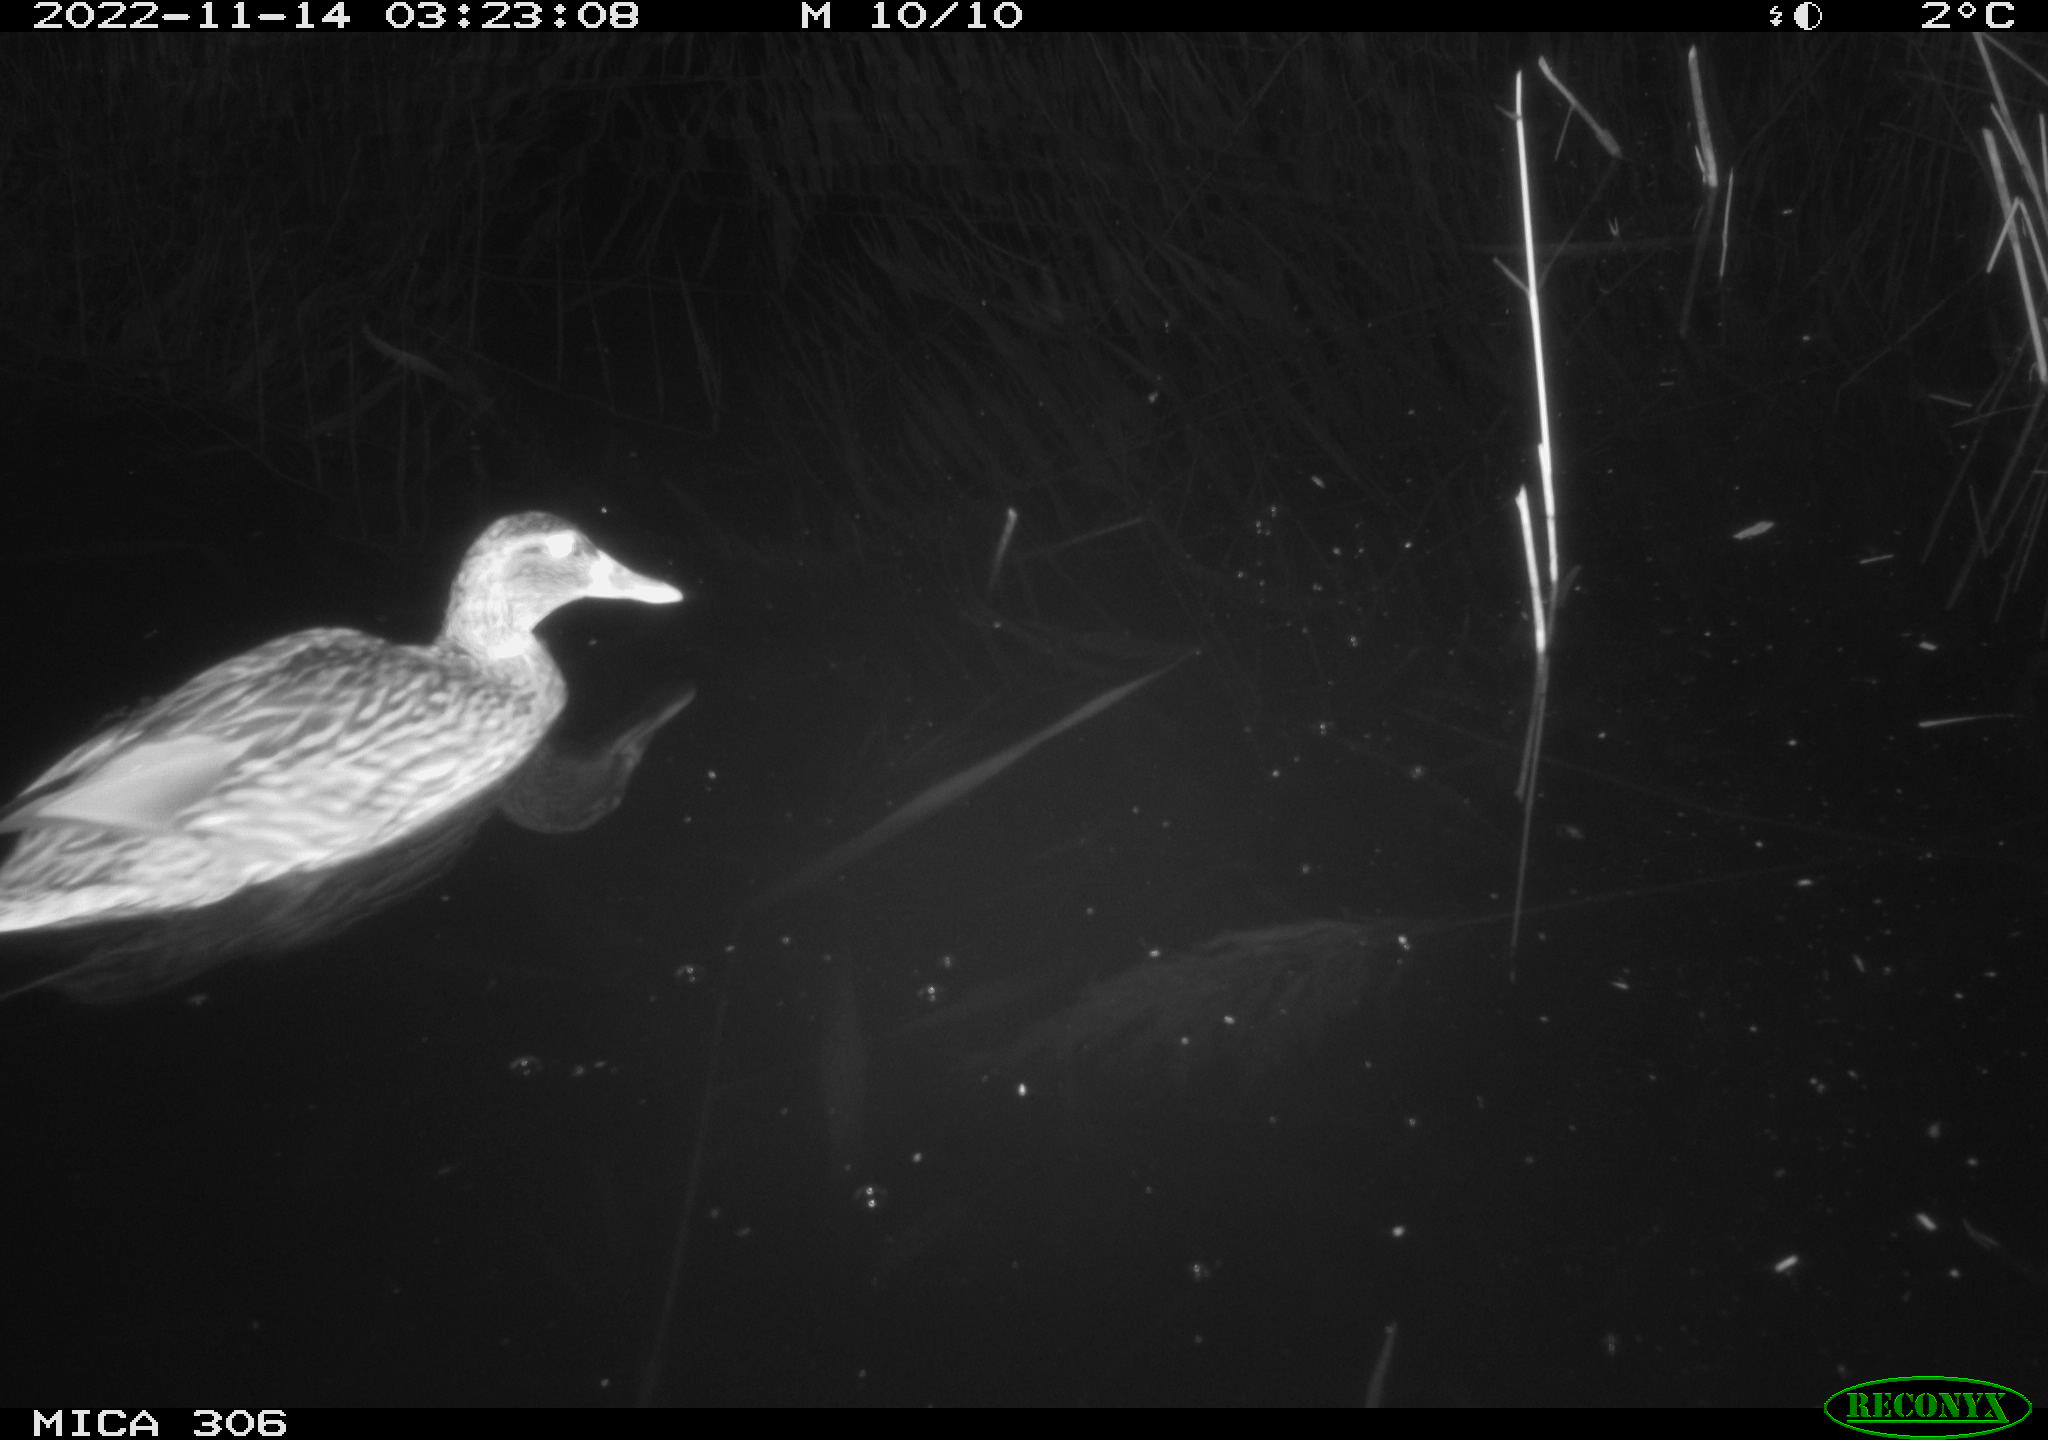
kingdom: Animalia
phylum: Chordata
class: Aves
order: Anseriformes
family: Anatidae
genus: Anas
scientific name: Anas
